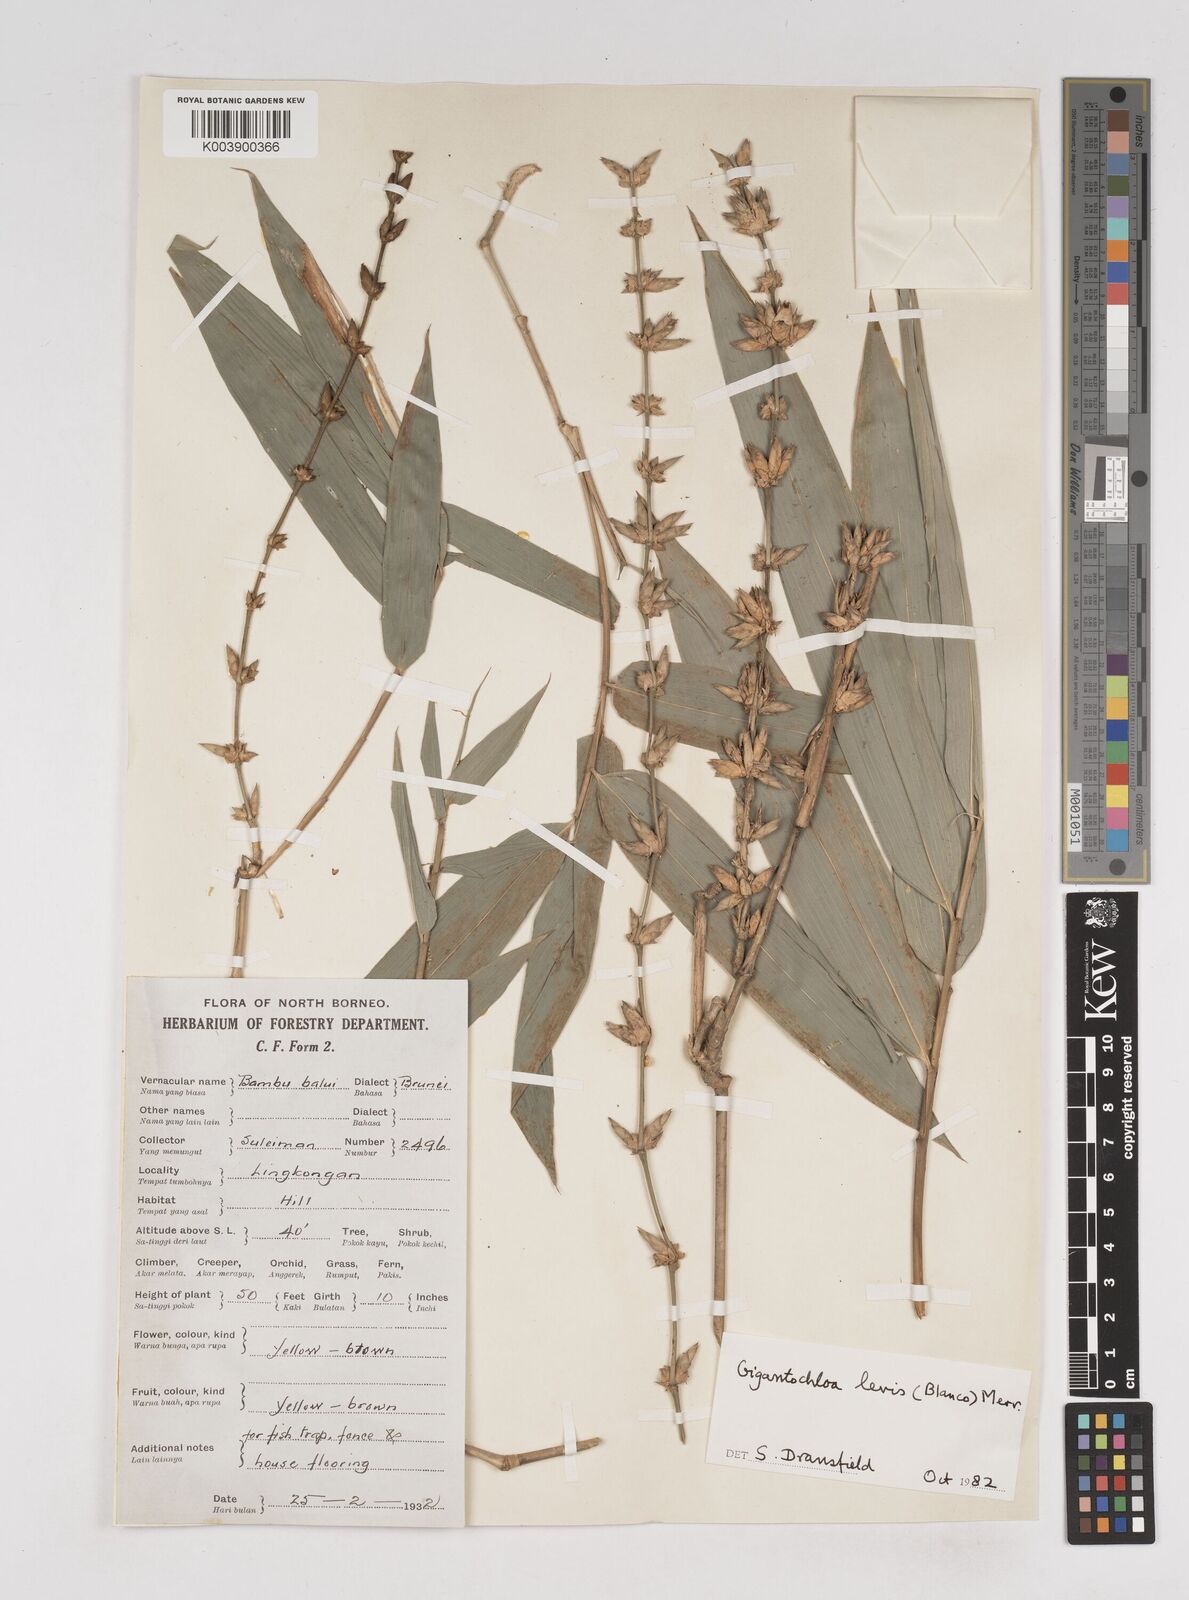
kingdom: Plantae
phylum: Tracheophyta
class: Liliopsida
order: Poales
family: Poaceae
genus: Gigantochloa
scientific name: Gigantochloa
